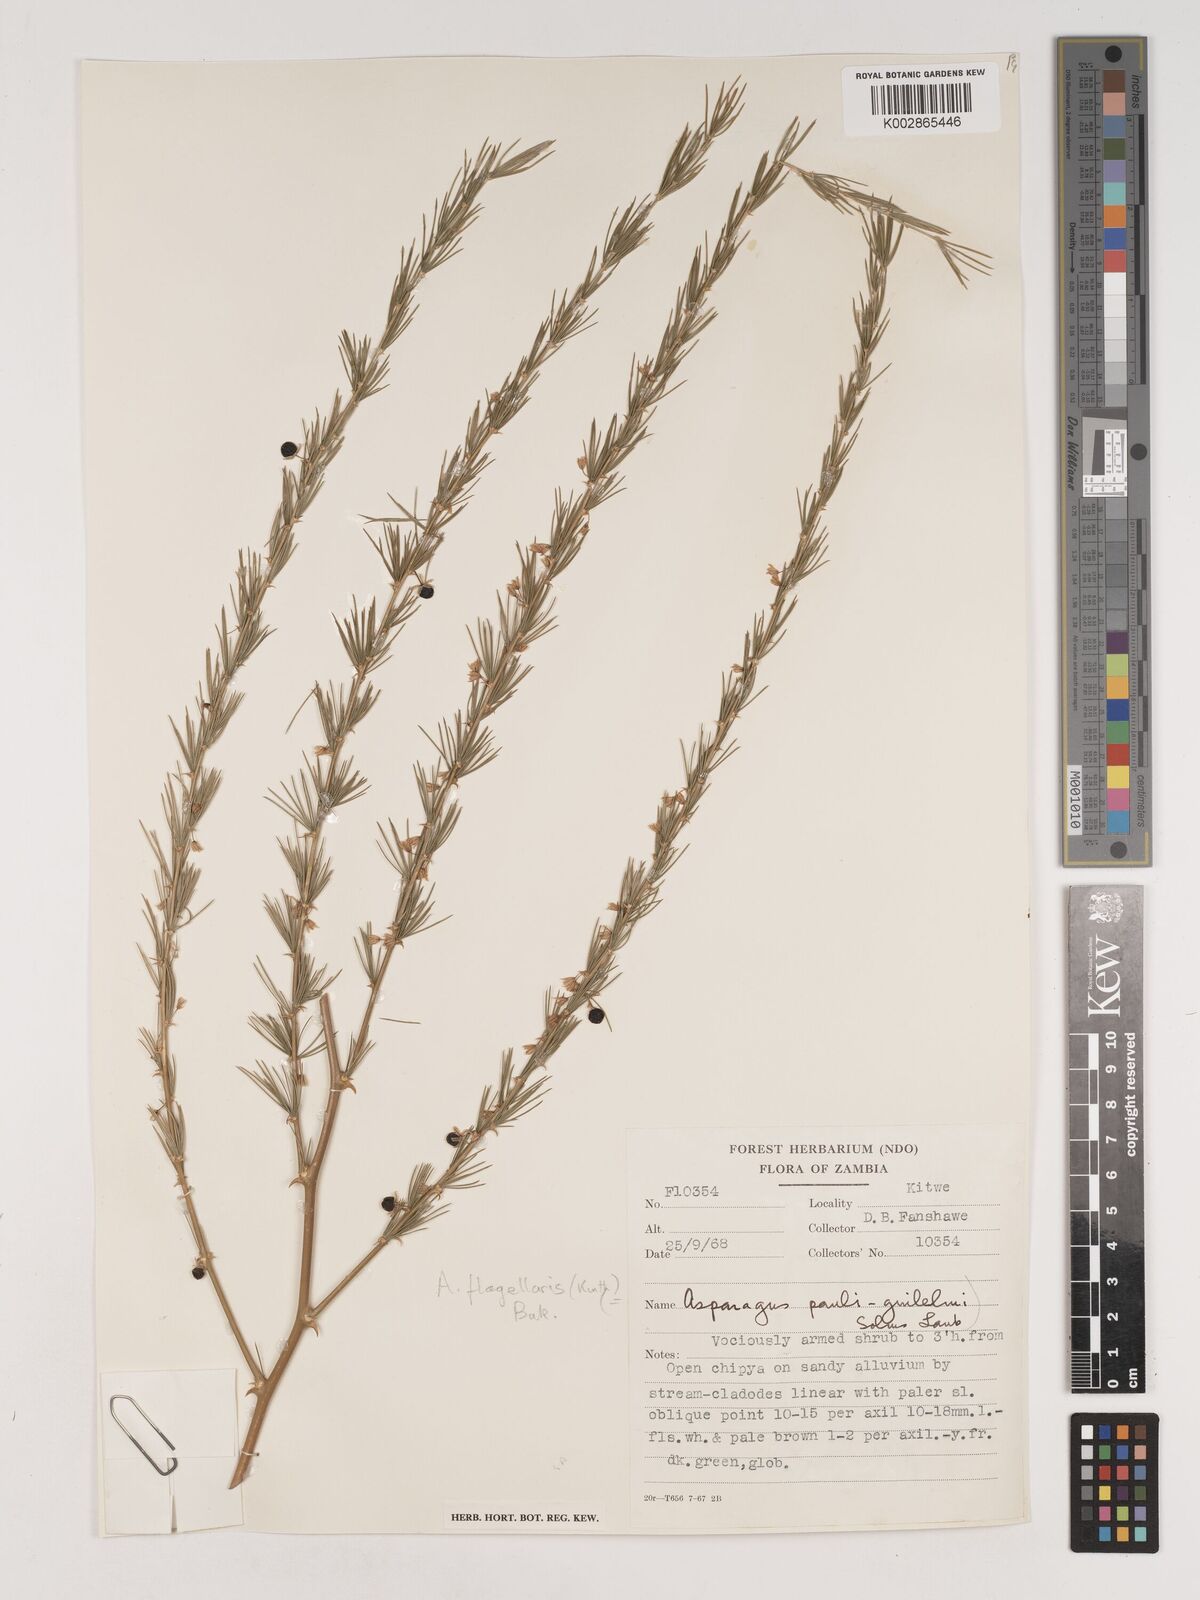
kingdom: Plantae
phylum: Tracheophyta
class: Liliopsida
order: Asparagales
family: Asparagaceae
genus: Asparagus
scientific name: Asparagus flagellaris
